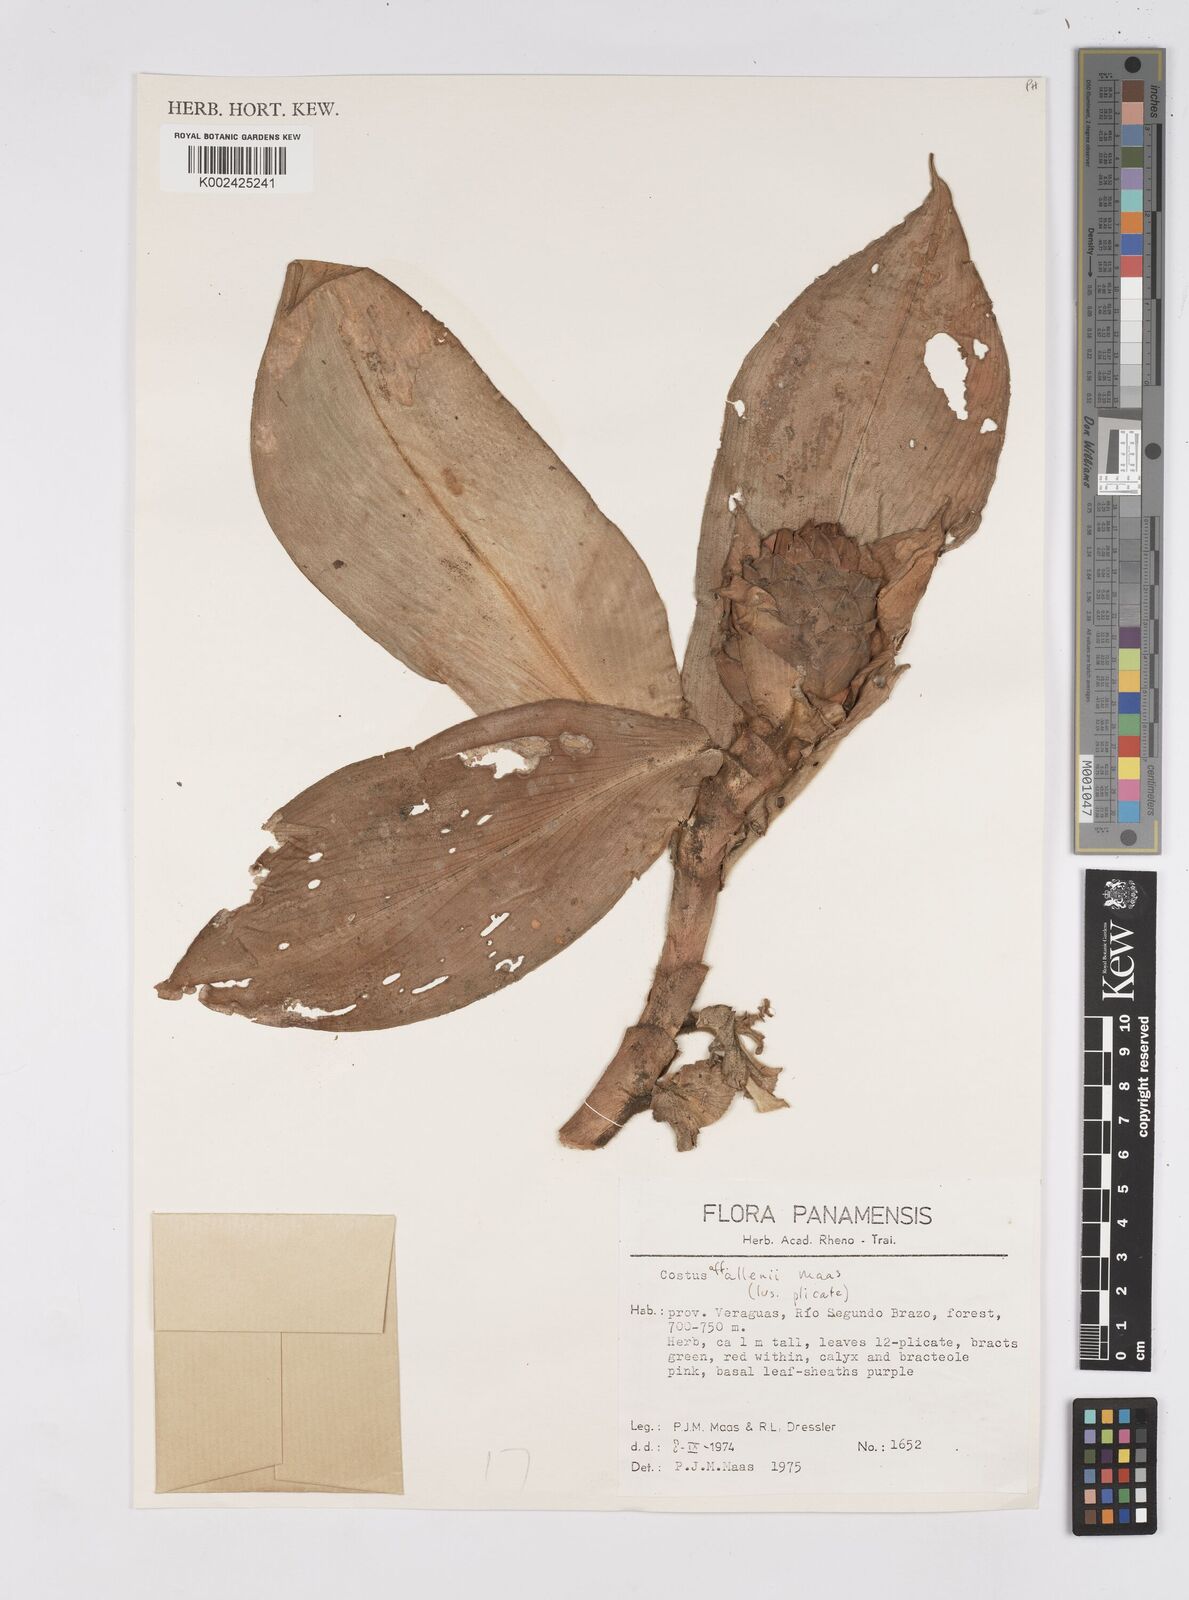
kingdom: Plantae
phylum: Tracheophyta
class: Liliopsida
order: Zingiberales
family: Costaceae
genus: Costus
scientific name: Costus allenii
